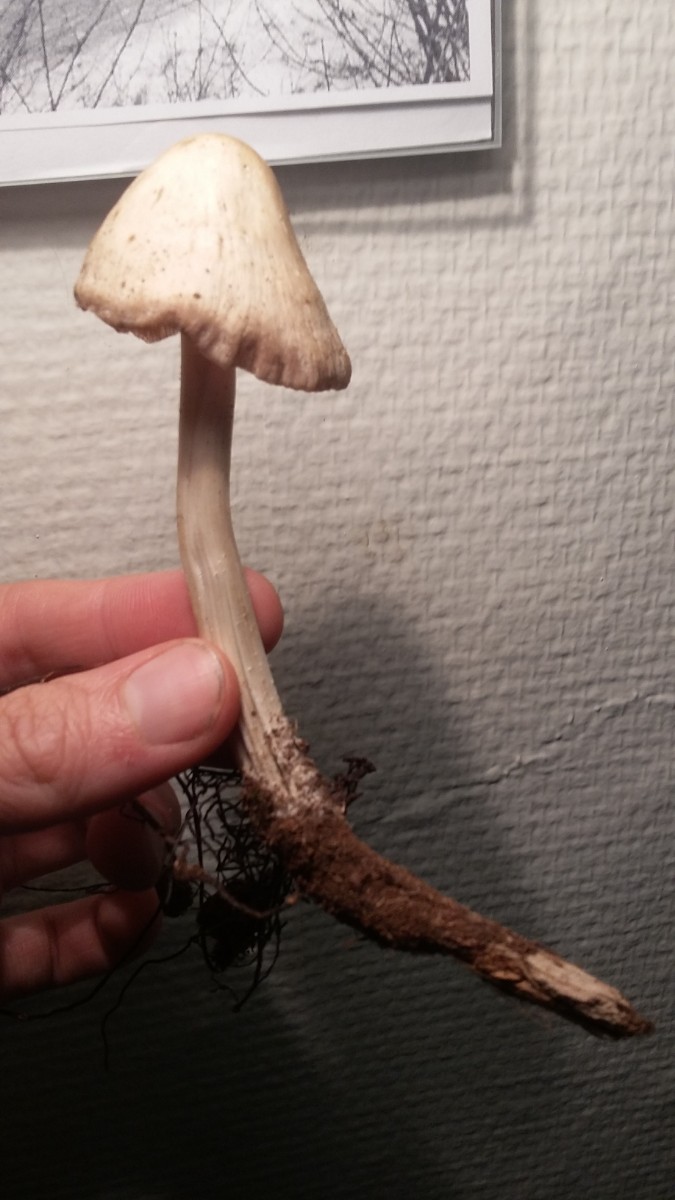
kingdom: Fungi
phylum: Basidiomycota
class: Agaricomycetes
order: Agaricales
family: Mycenaceae
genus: Mycena
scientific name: Mycena galericulata
